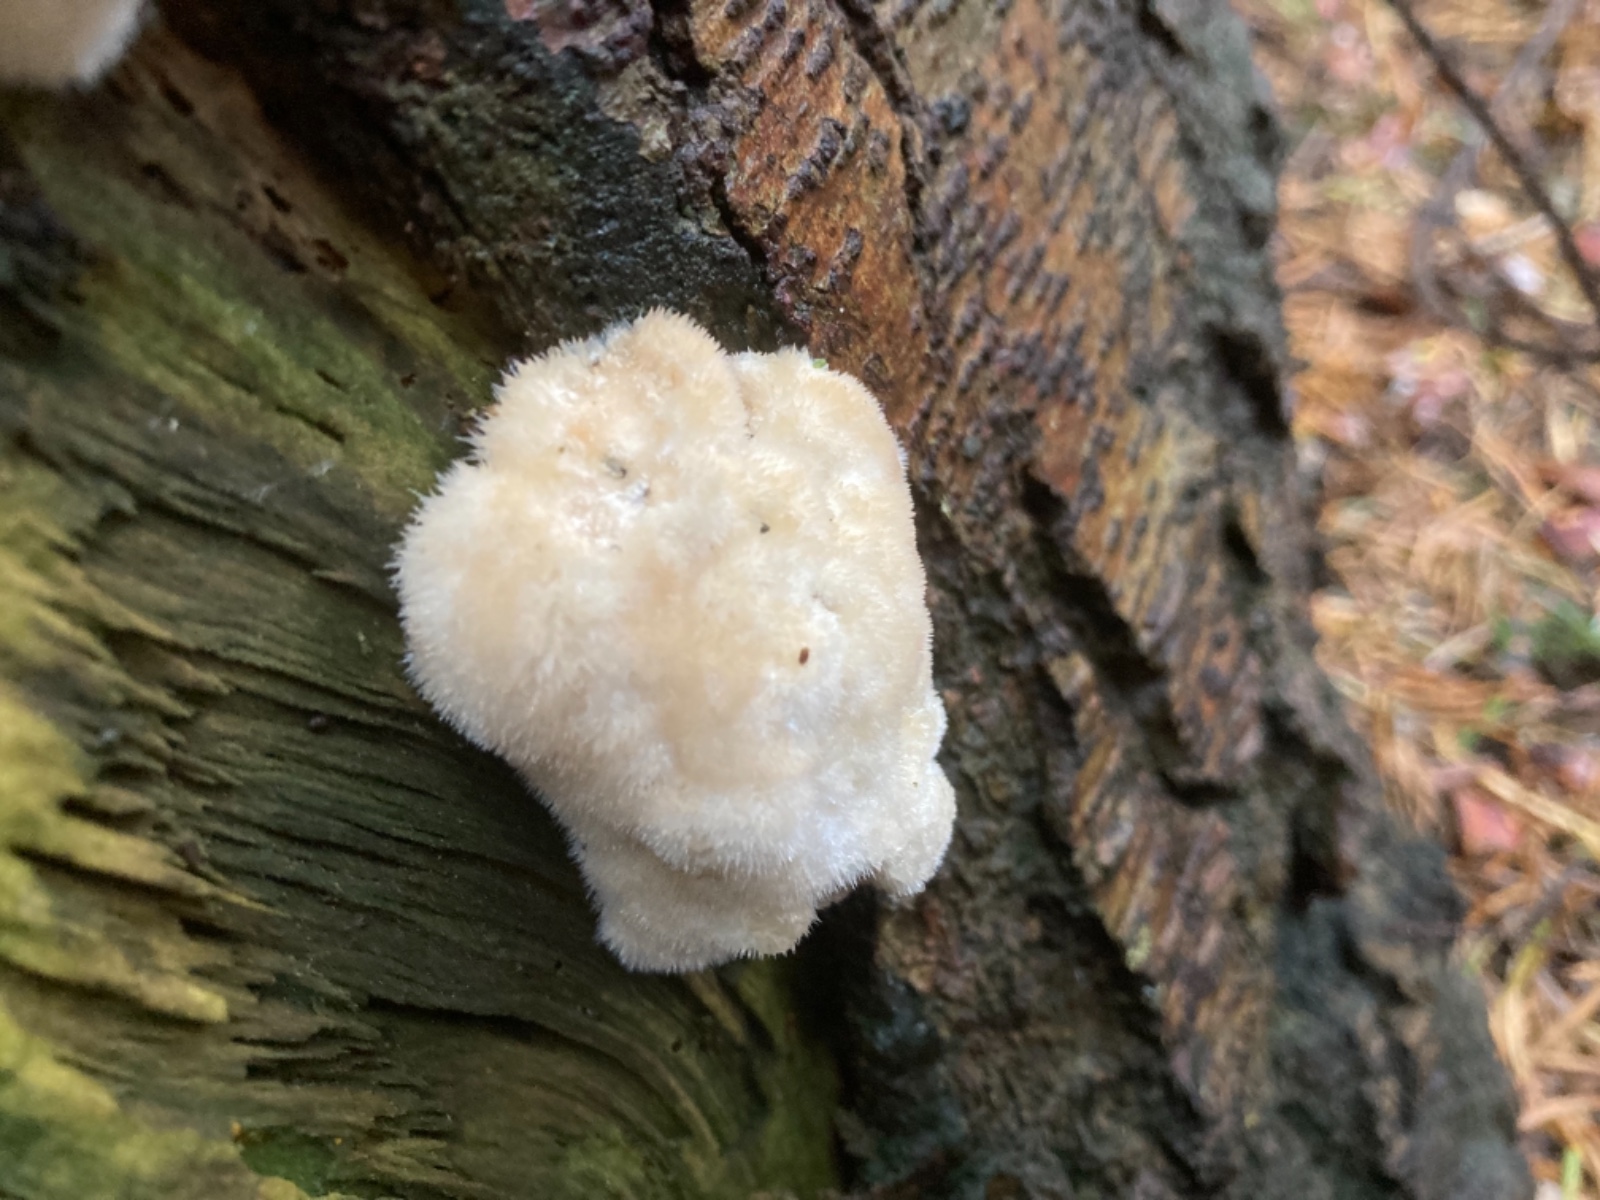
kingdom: Fungi
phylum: Basidiomycota
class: Agaricomycetes
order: Polyporales
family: Dacryobolaceae
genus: Postia
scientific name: Postia ptychogaster
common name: støvende kødporesvamp
